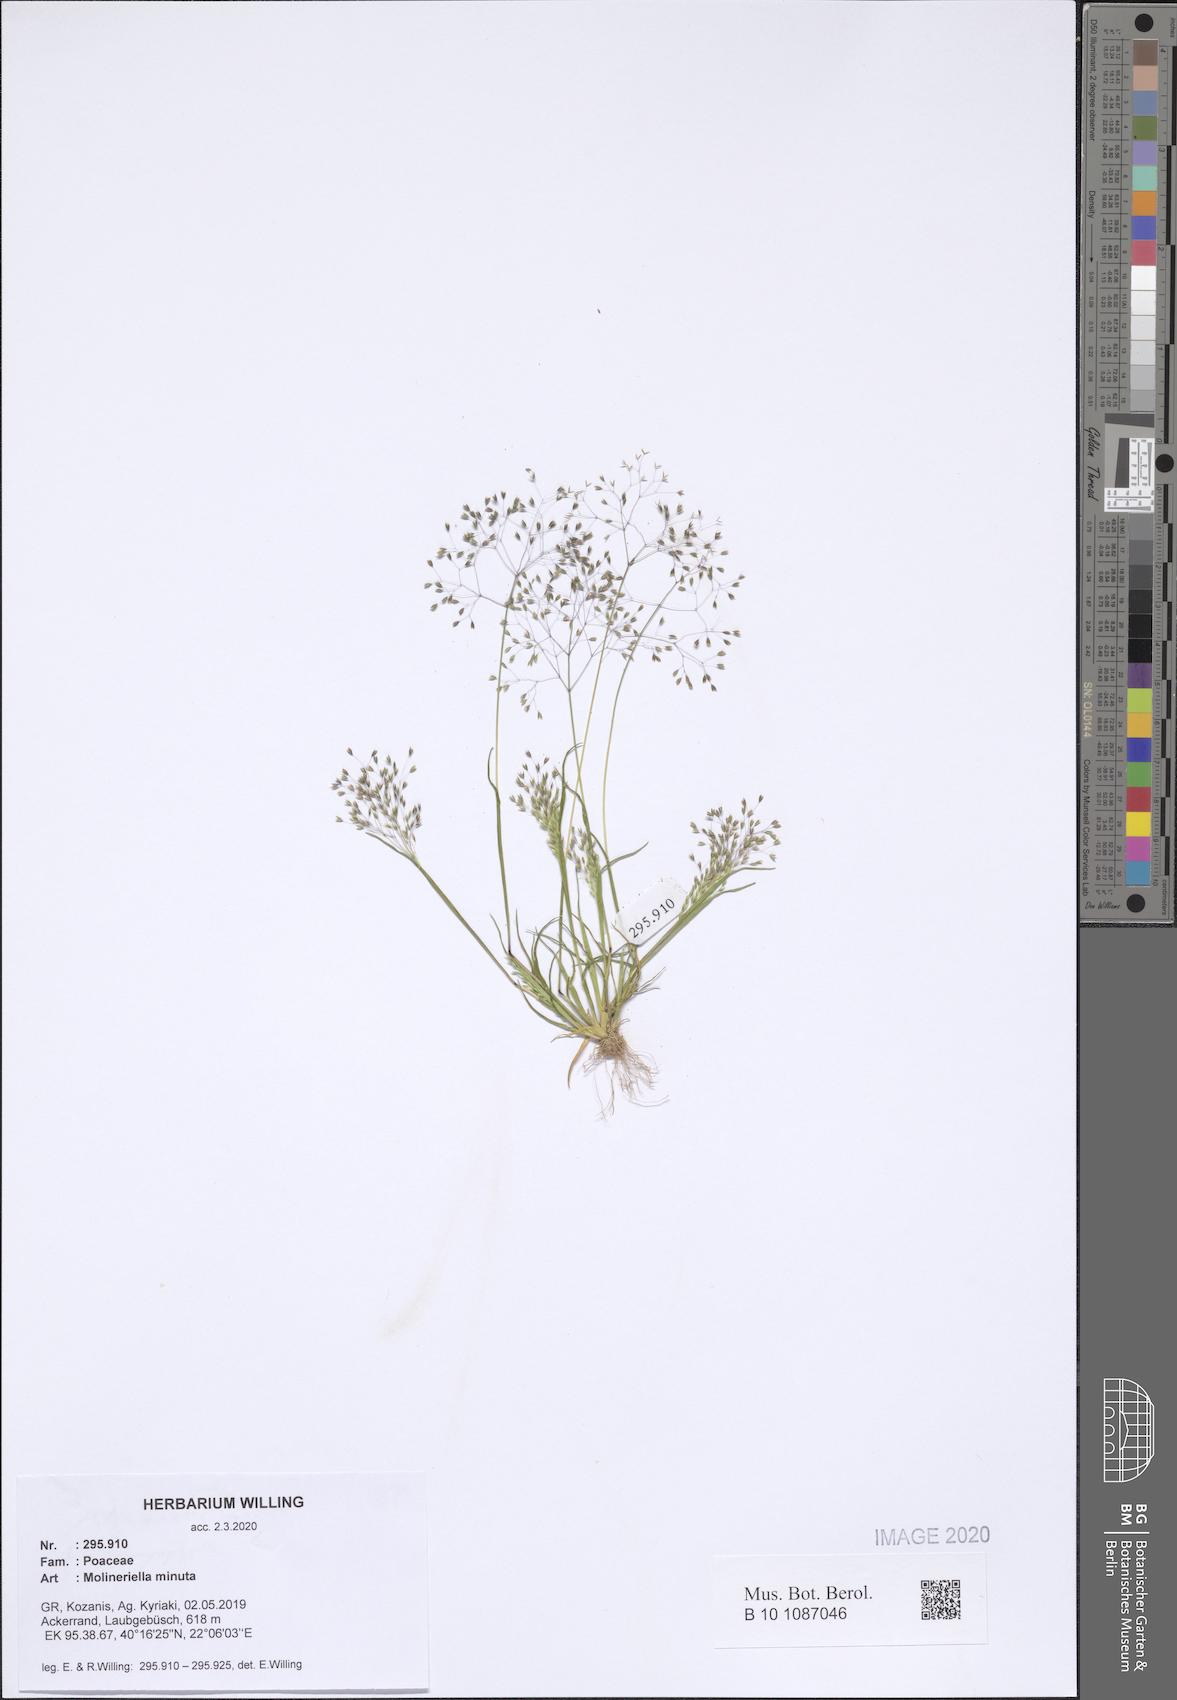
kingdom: Plantae
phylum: Tracheophyta
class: Liliopsida
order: Poales
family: Poaceae
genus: Molineriella
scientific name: Molineriella minuta
